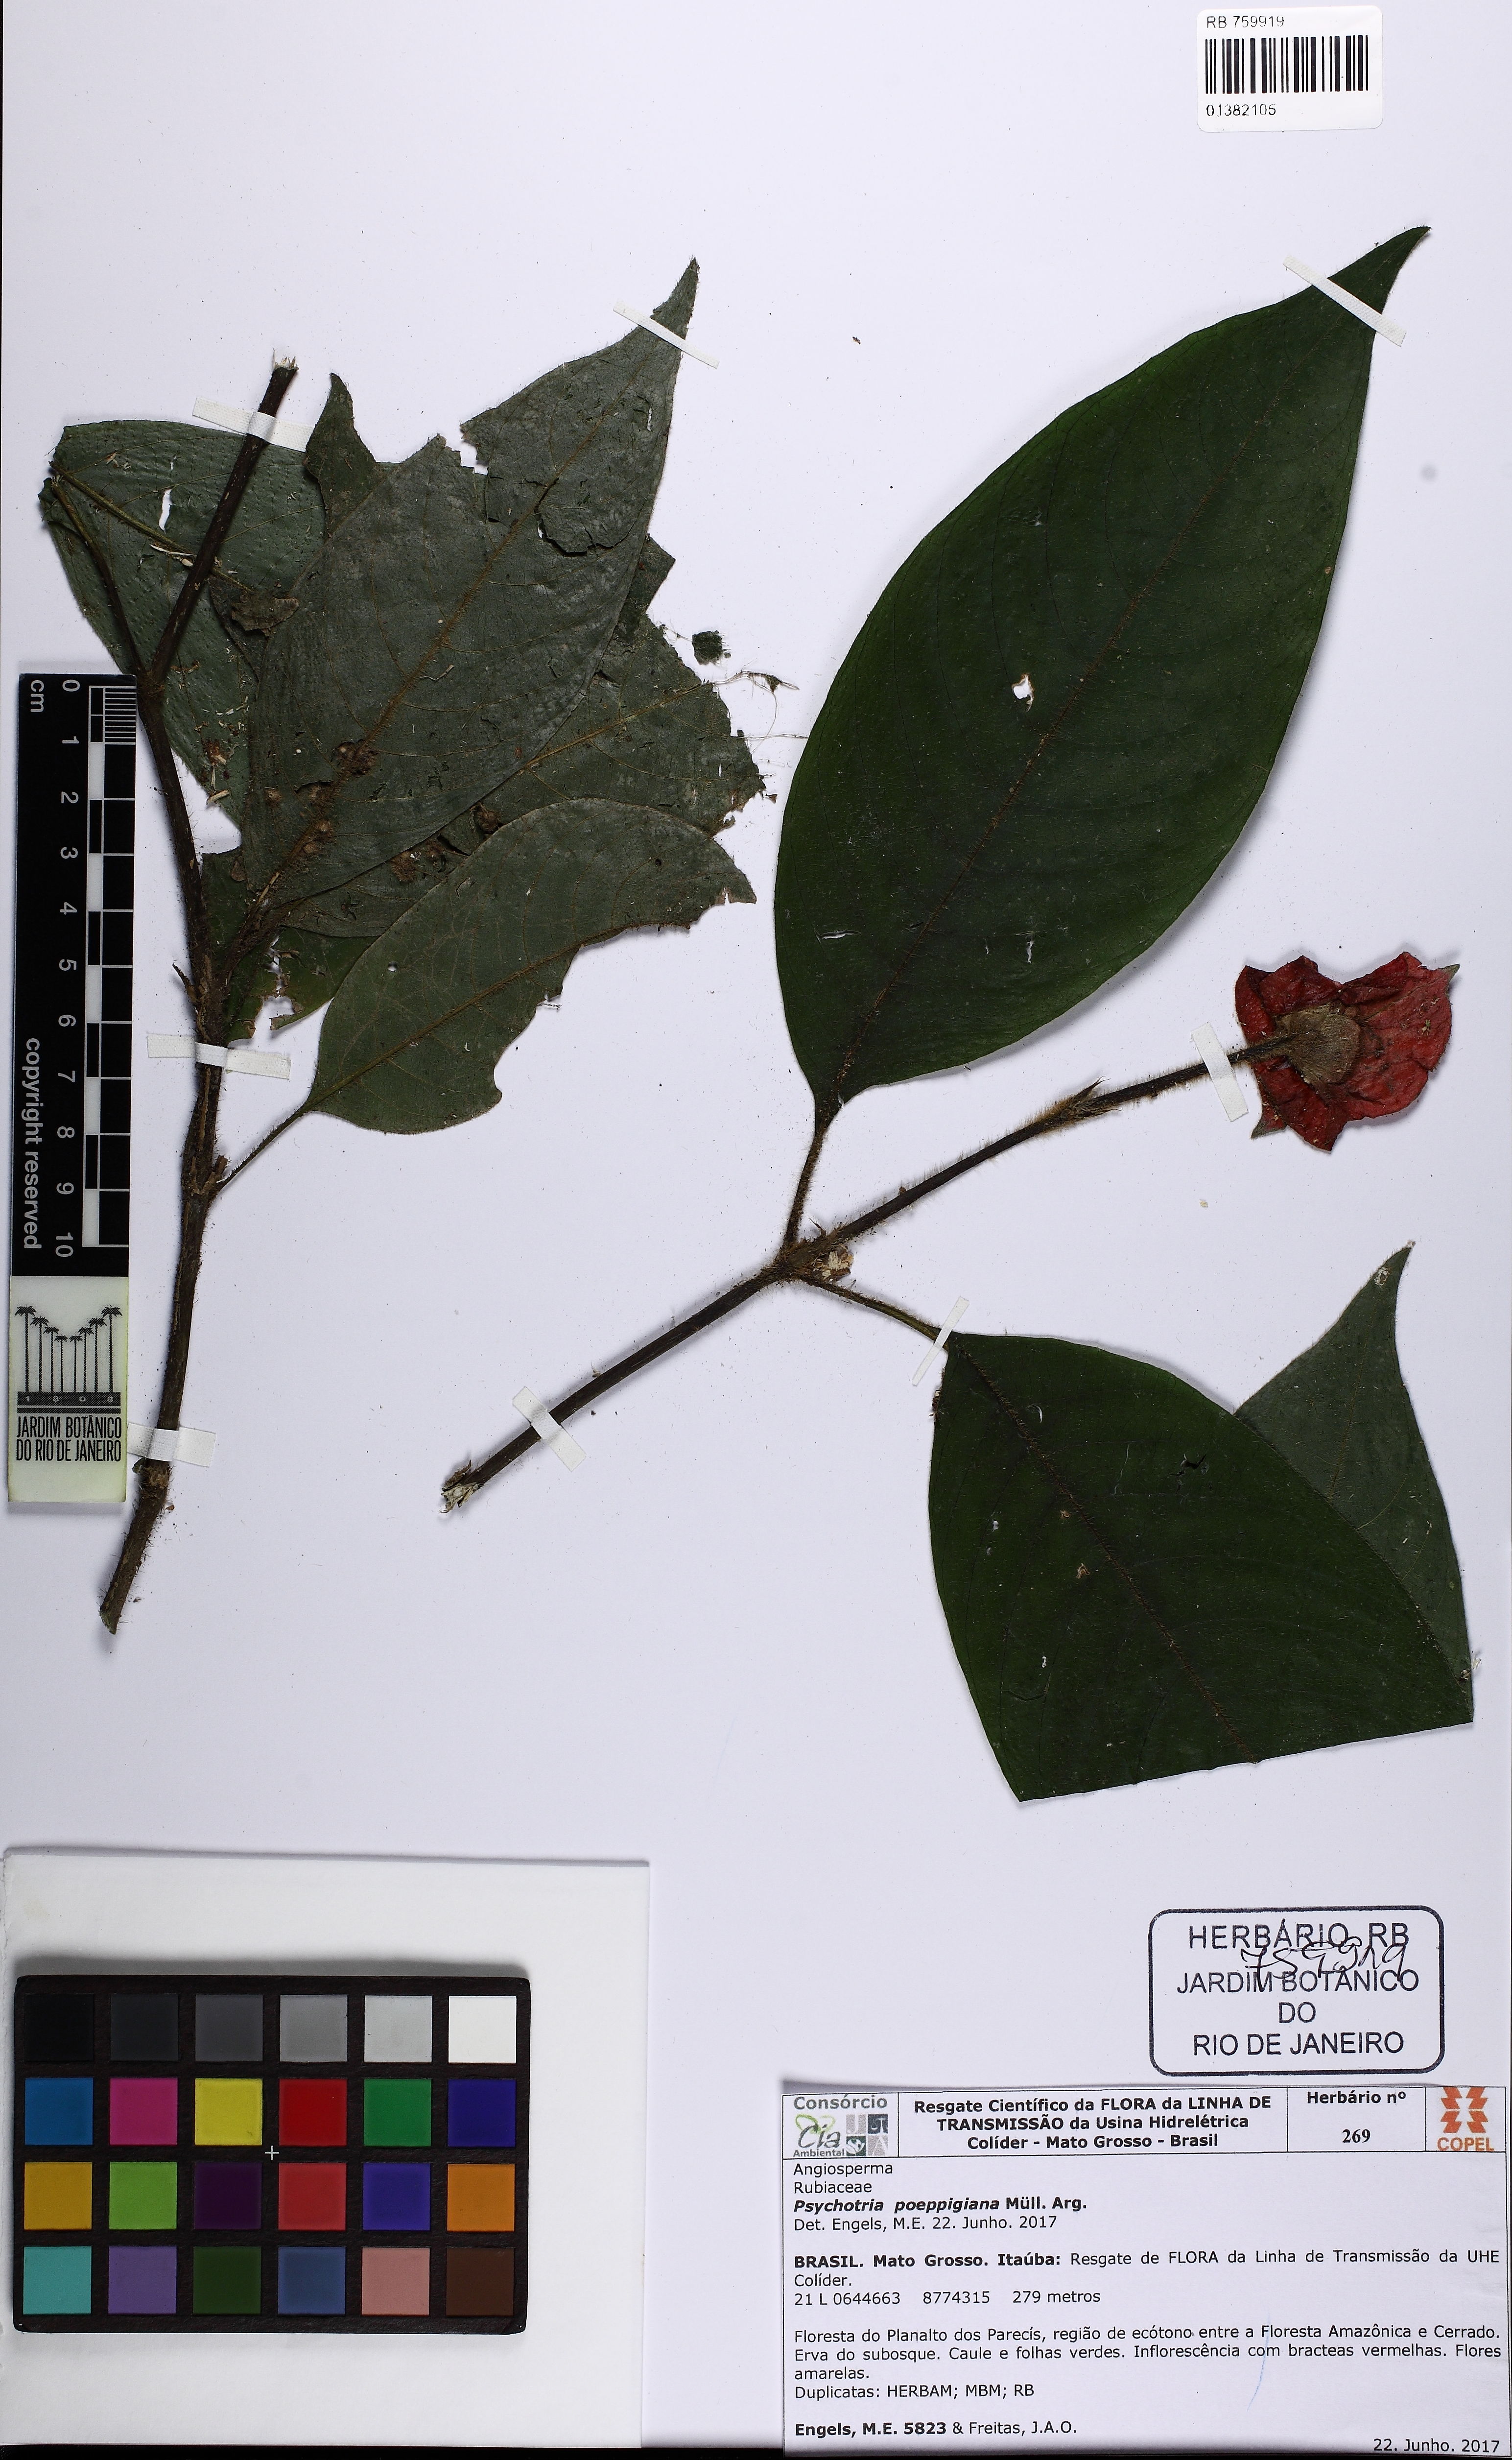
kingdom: Plantae
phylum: Tracheophyta
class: Magnoliopsida
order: Gentianales
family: Rubiaceae
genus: Palicourea
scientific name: Palicourea tomentosa
